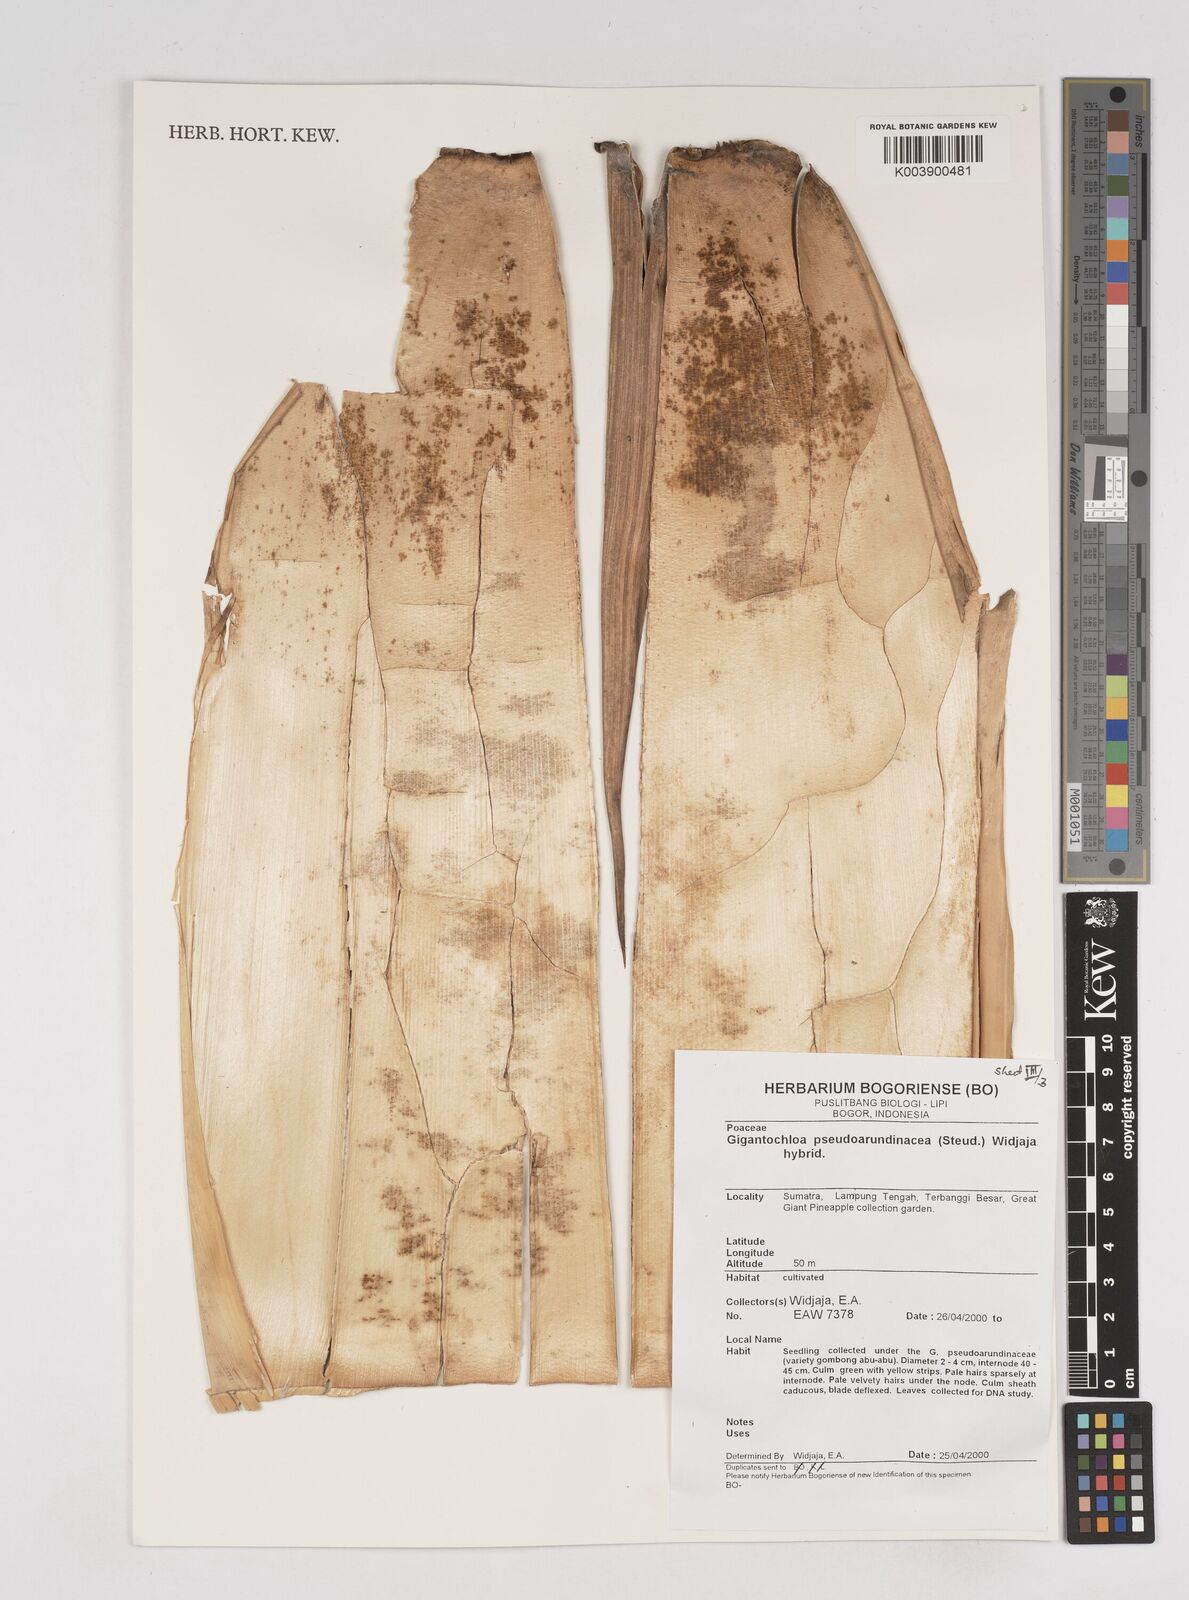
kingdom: Plantae
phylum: Tracheophyta
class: Liliopsida
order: Poales
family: Poaceae
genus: Gigantochloa
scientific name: Gigantochloa verticillata
